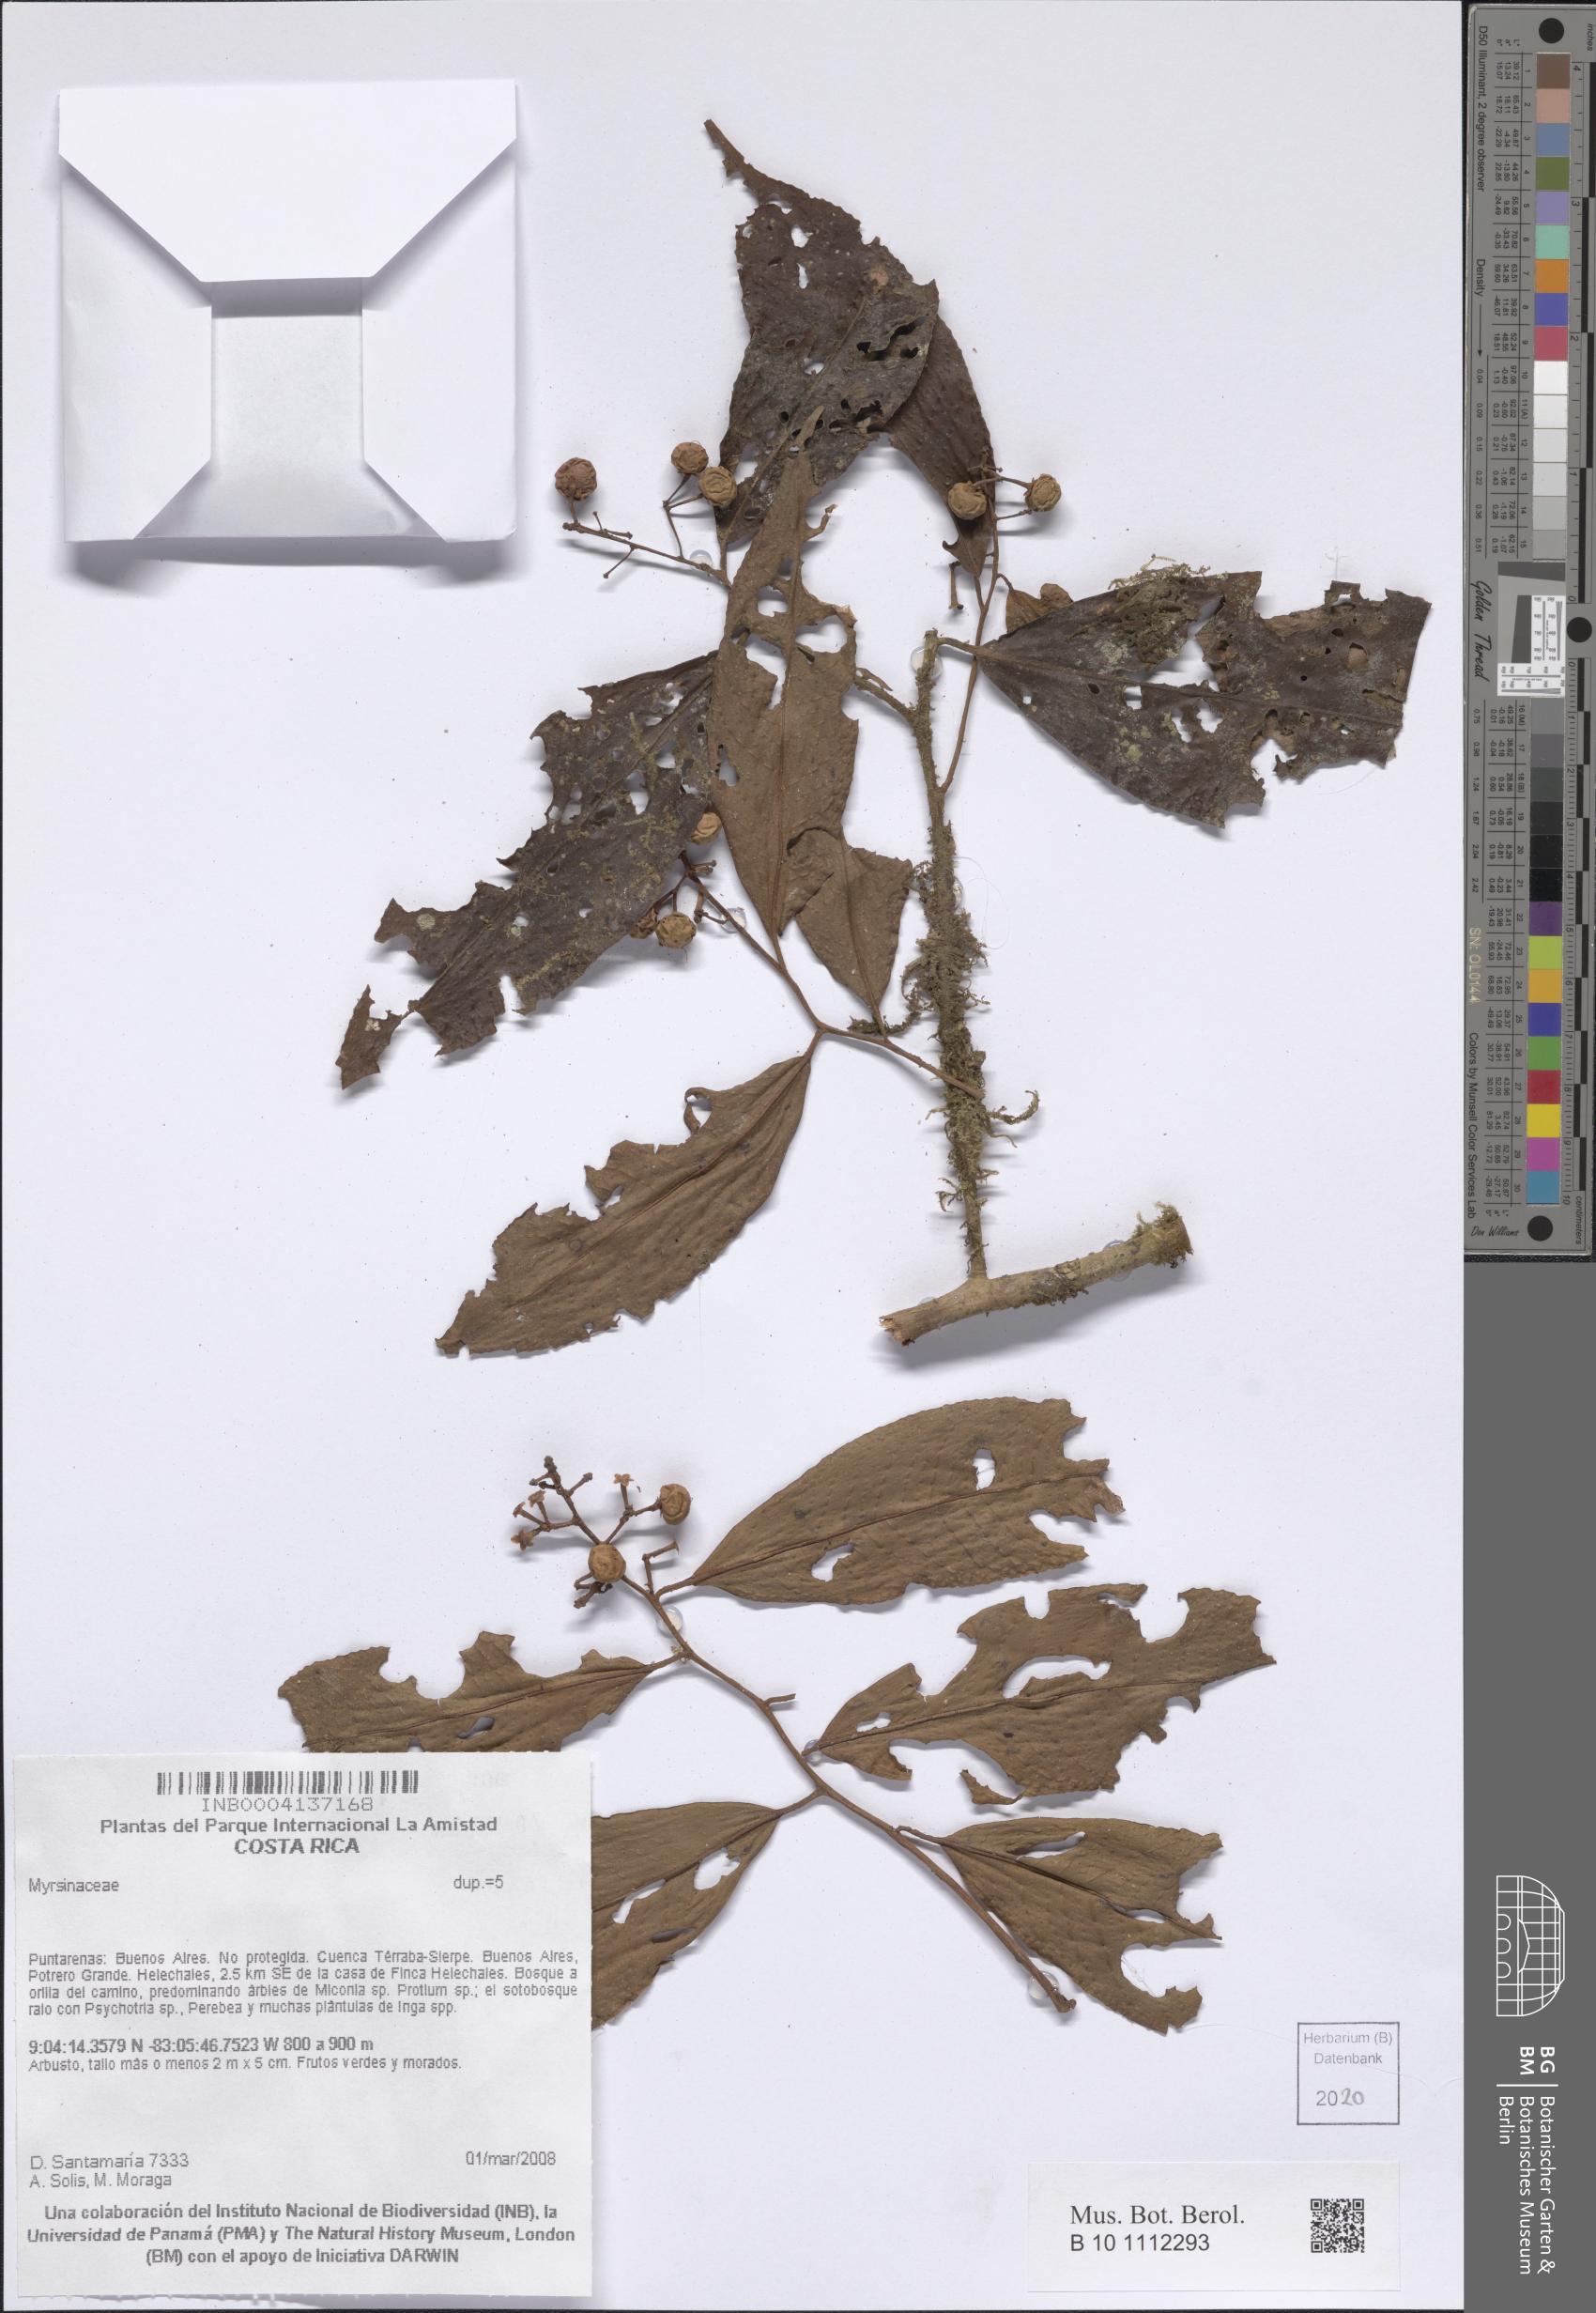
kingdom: Plantae
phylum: Tracheophyta
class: Magnoliopsida
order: Ericales
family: Primulaceae
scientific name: Primulaceae
